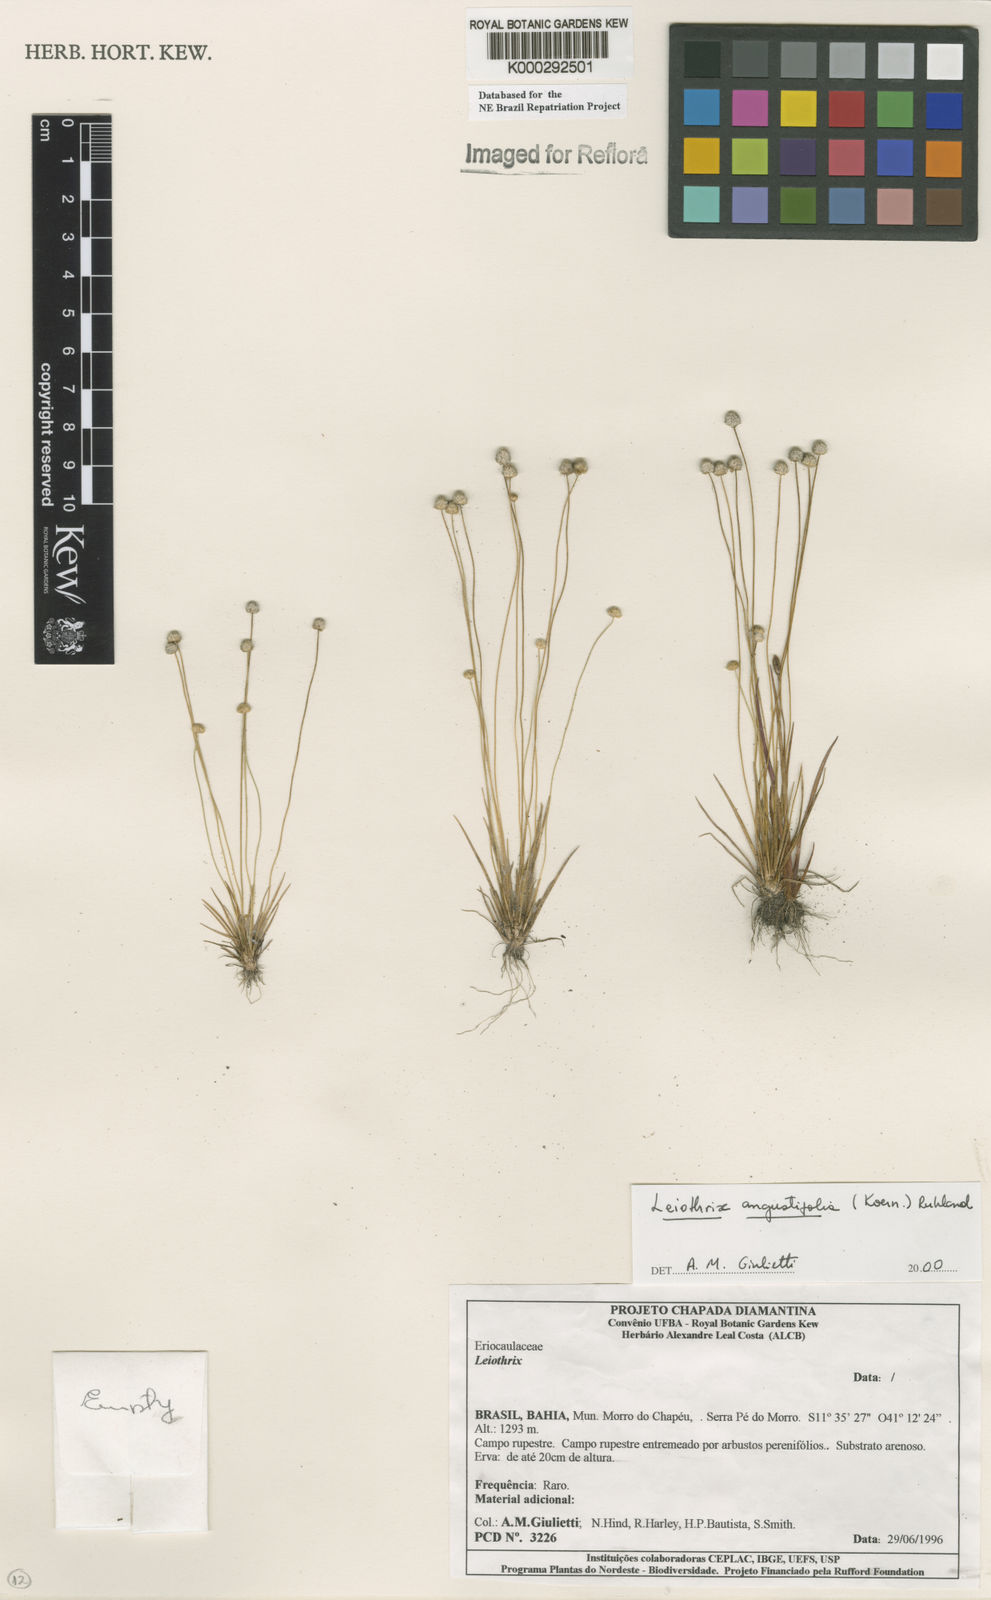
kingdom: Plantae
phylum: Tracheophyta
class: Liliopsida
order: Poales
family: Eriocaulaceae
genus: Leiothrix
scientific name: Leiothrix angustifolia
